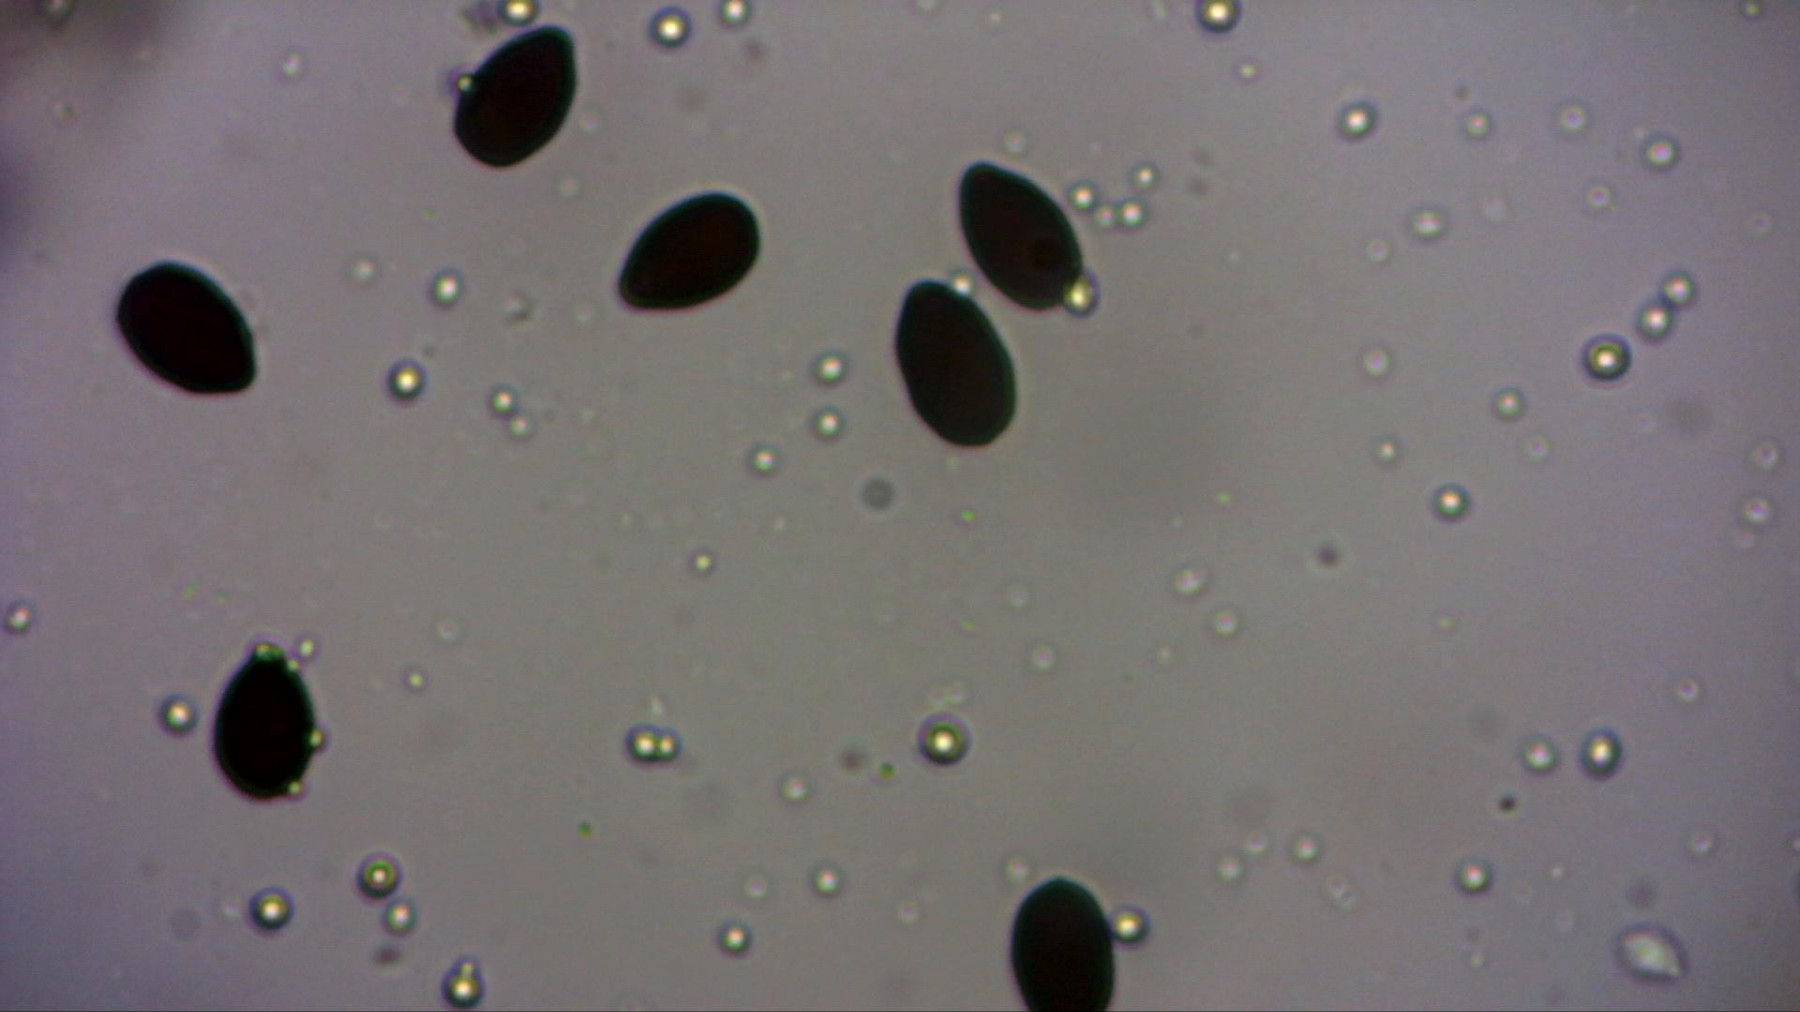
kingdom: Fungi
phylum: Basidiomycota
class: Agaricomycetes
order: Agaricales
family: Psathyrellaceae
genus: Parasola
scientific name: Parasola megasperma
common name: storsporet hjulhat
